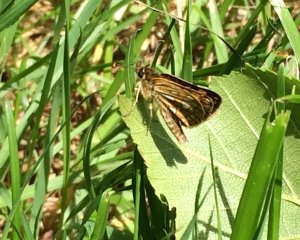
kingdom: Animalia
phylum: Arthropoda
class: Insecta
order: Lepidoptera
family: Hesperiidae
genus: Carterocephalus
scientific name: Carterocephalus palaemon
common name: Chequered Skipper
